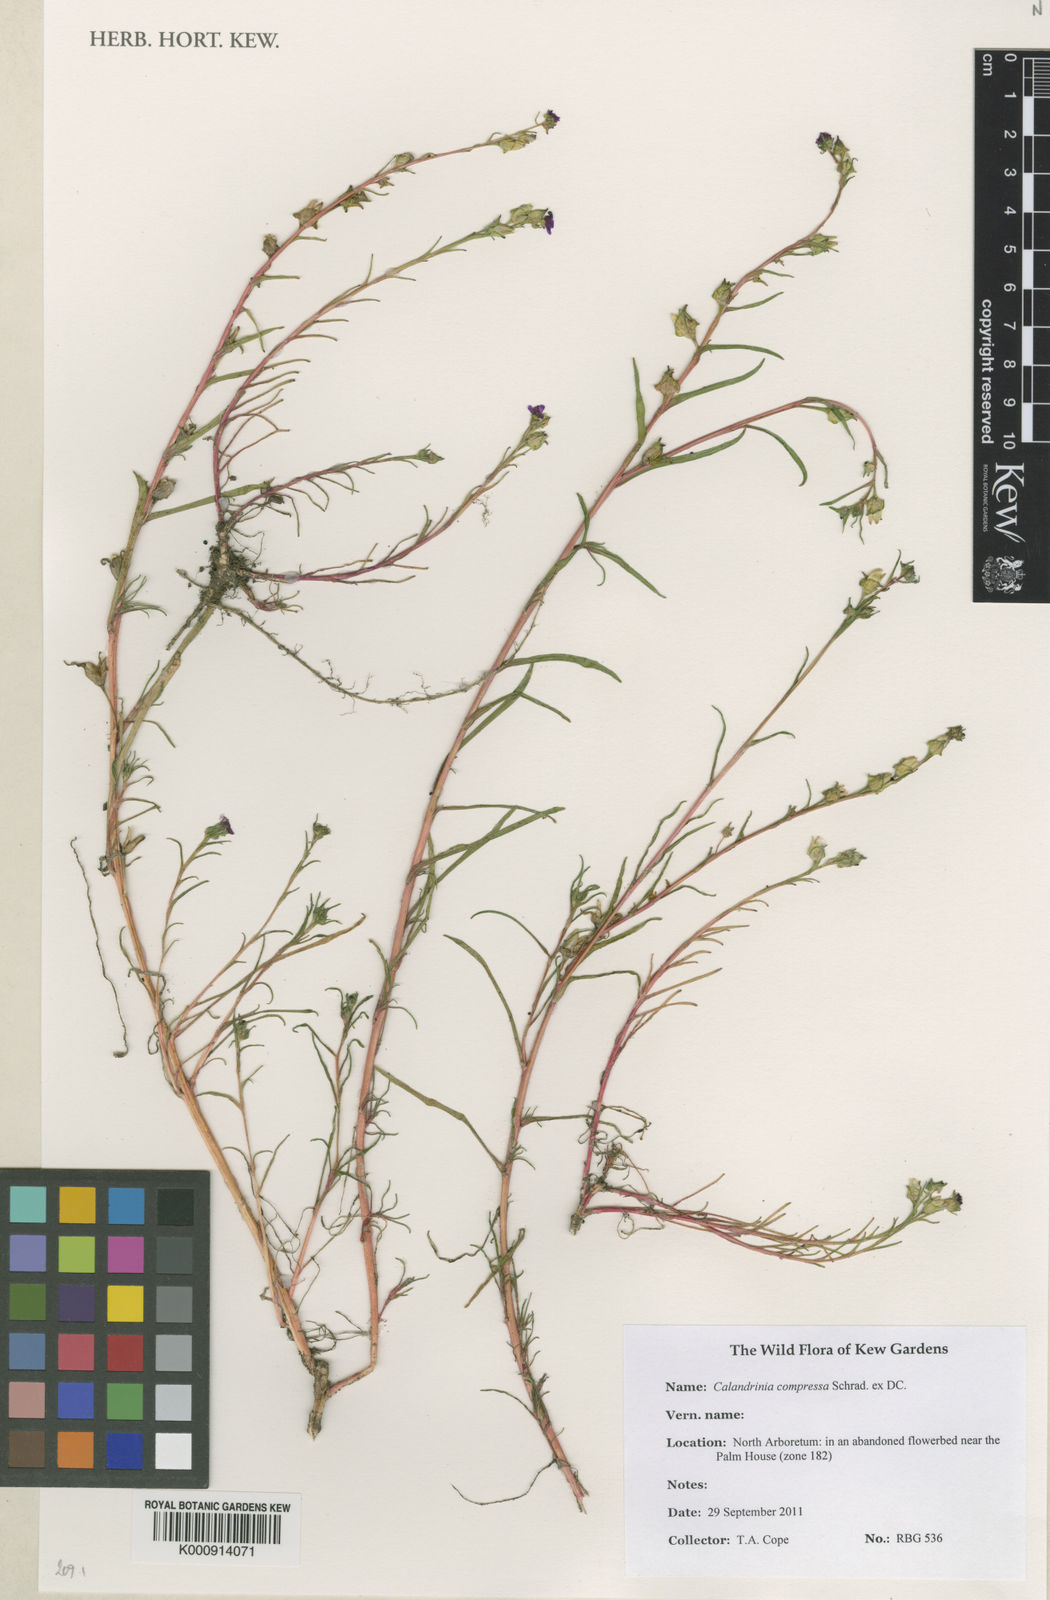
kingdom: Plantae
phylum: Tracheophyta
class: Magnoliopsida
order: Caryophyllales
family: Montiaceae
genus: Calandrinia
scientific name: Calandrinia pilosiuscula
